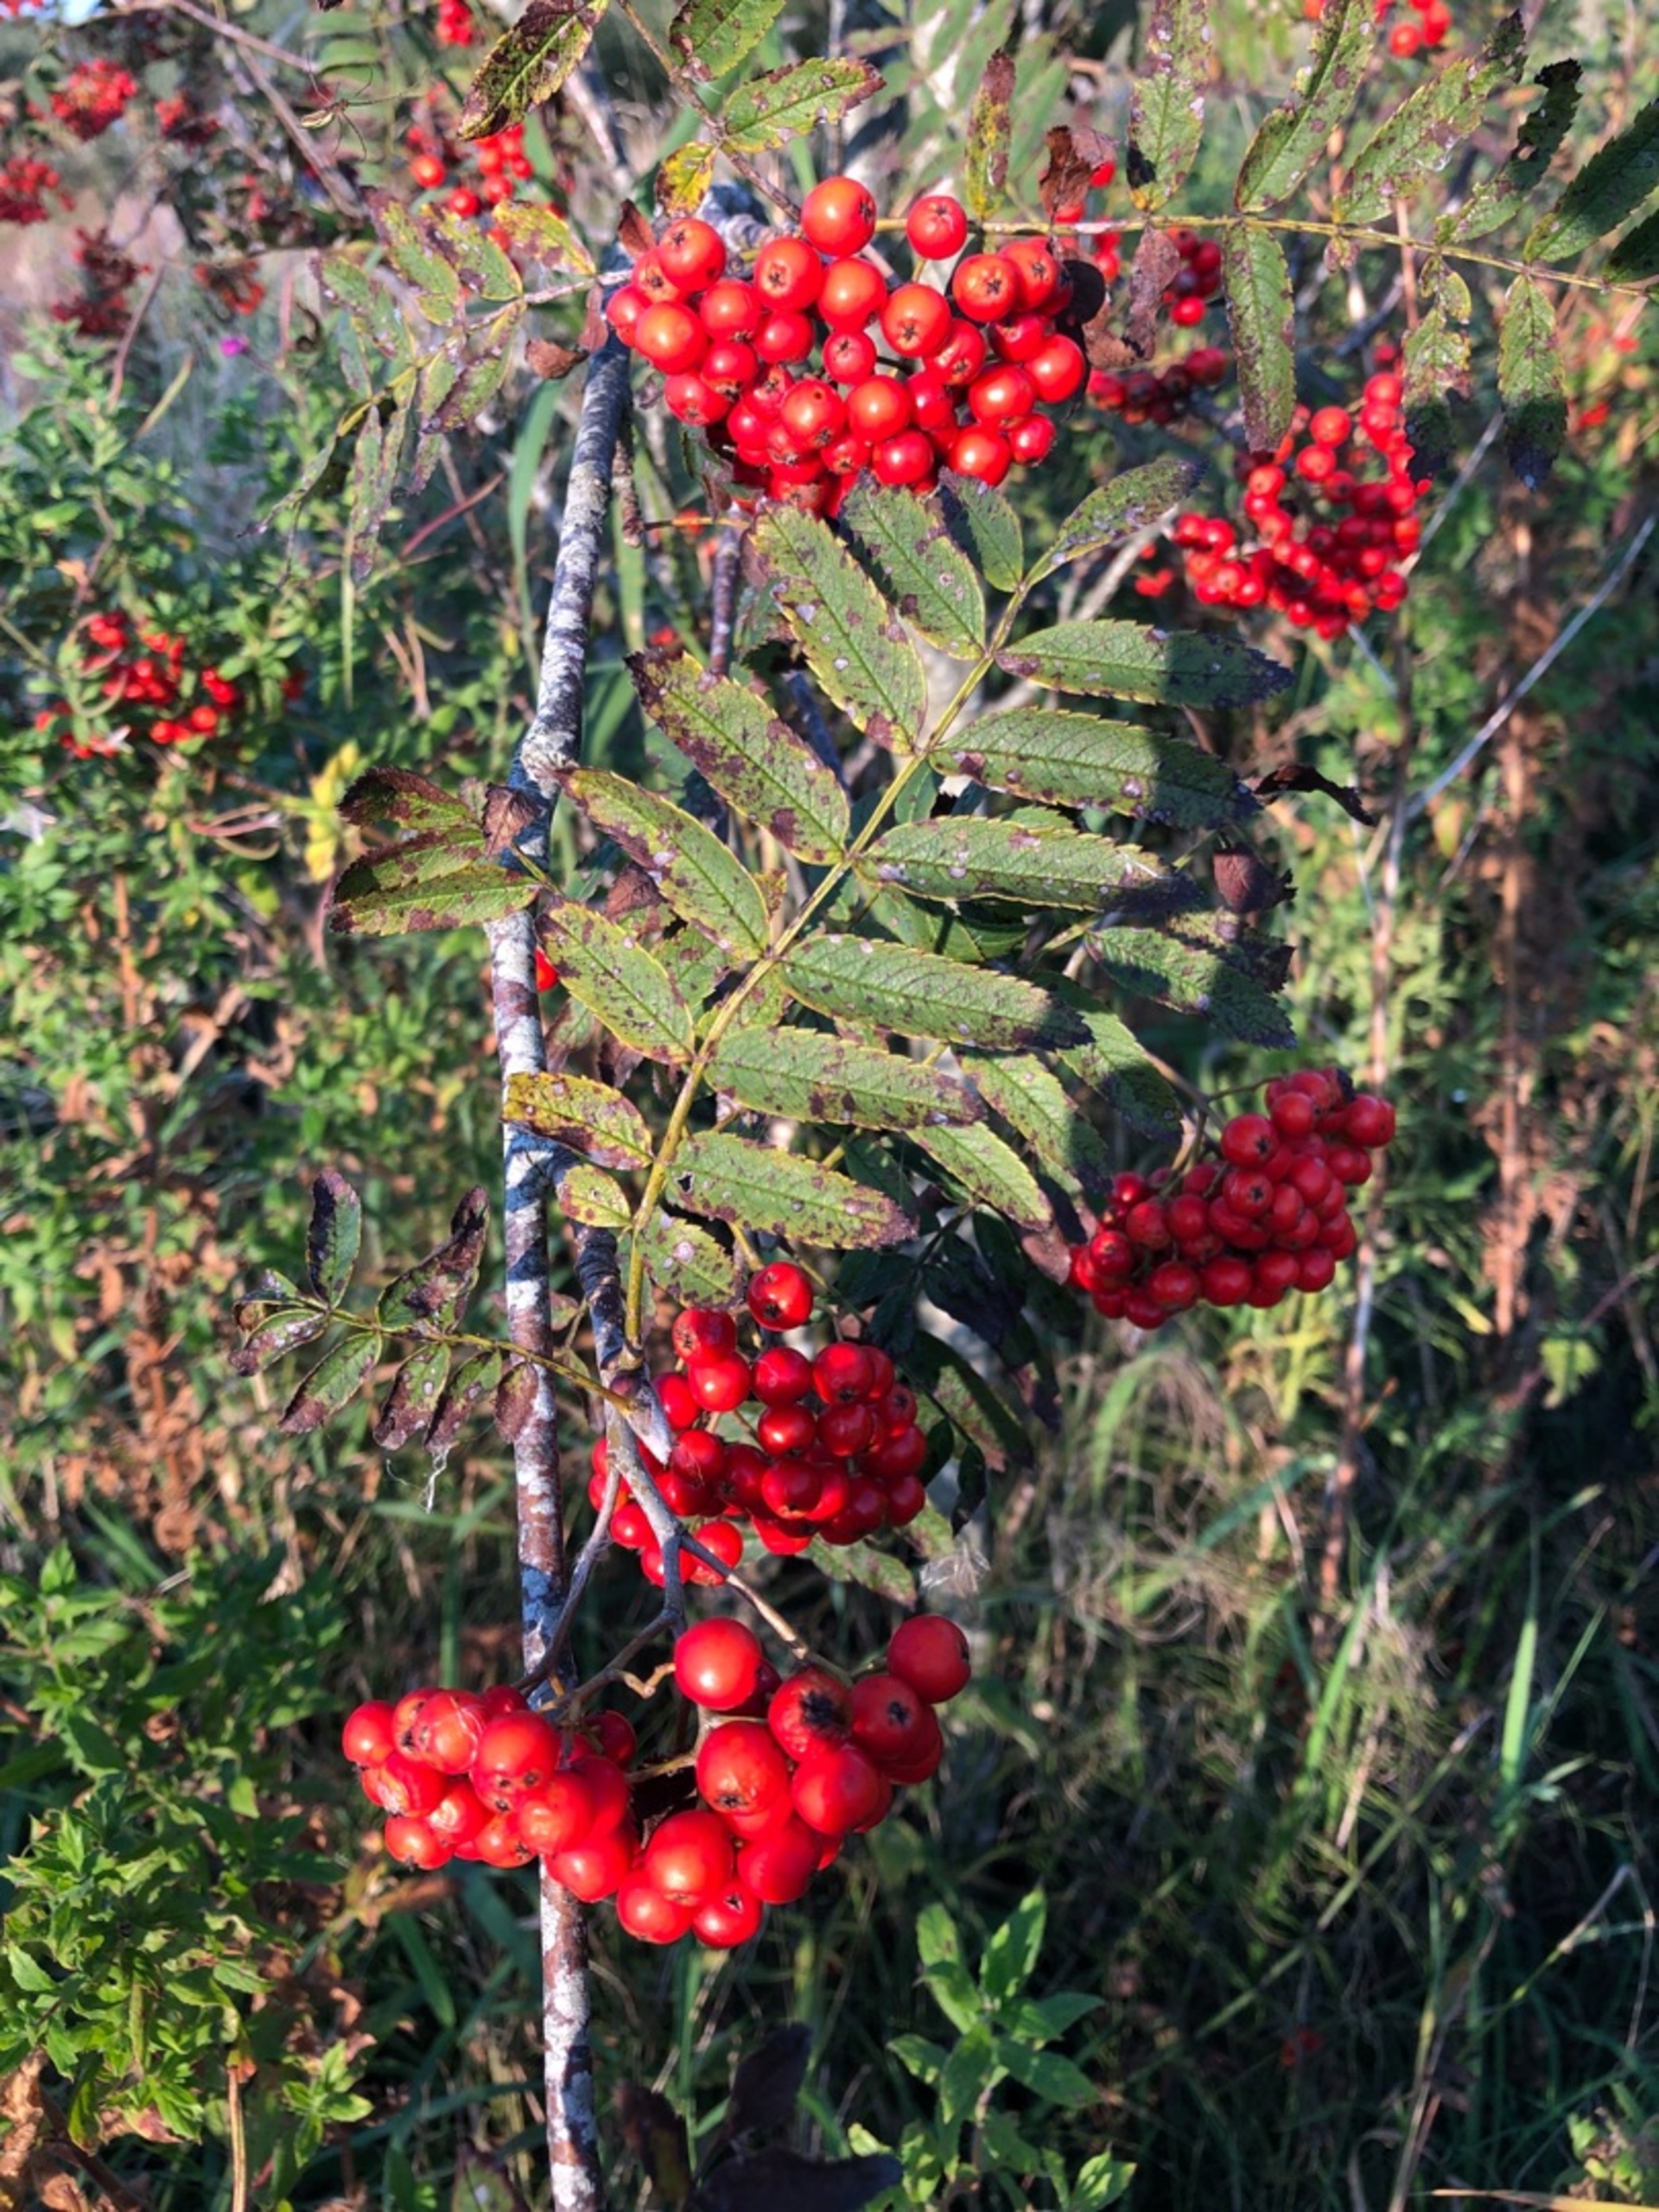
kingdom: Plantae
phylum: Tracheophyta
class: Magnoliopsida
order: Rosales
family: Rosaceae
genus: Sorbus
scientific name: Sorbus aucuparia
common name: Almindelig røn
